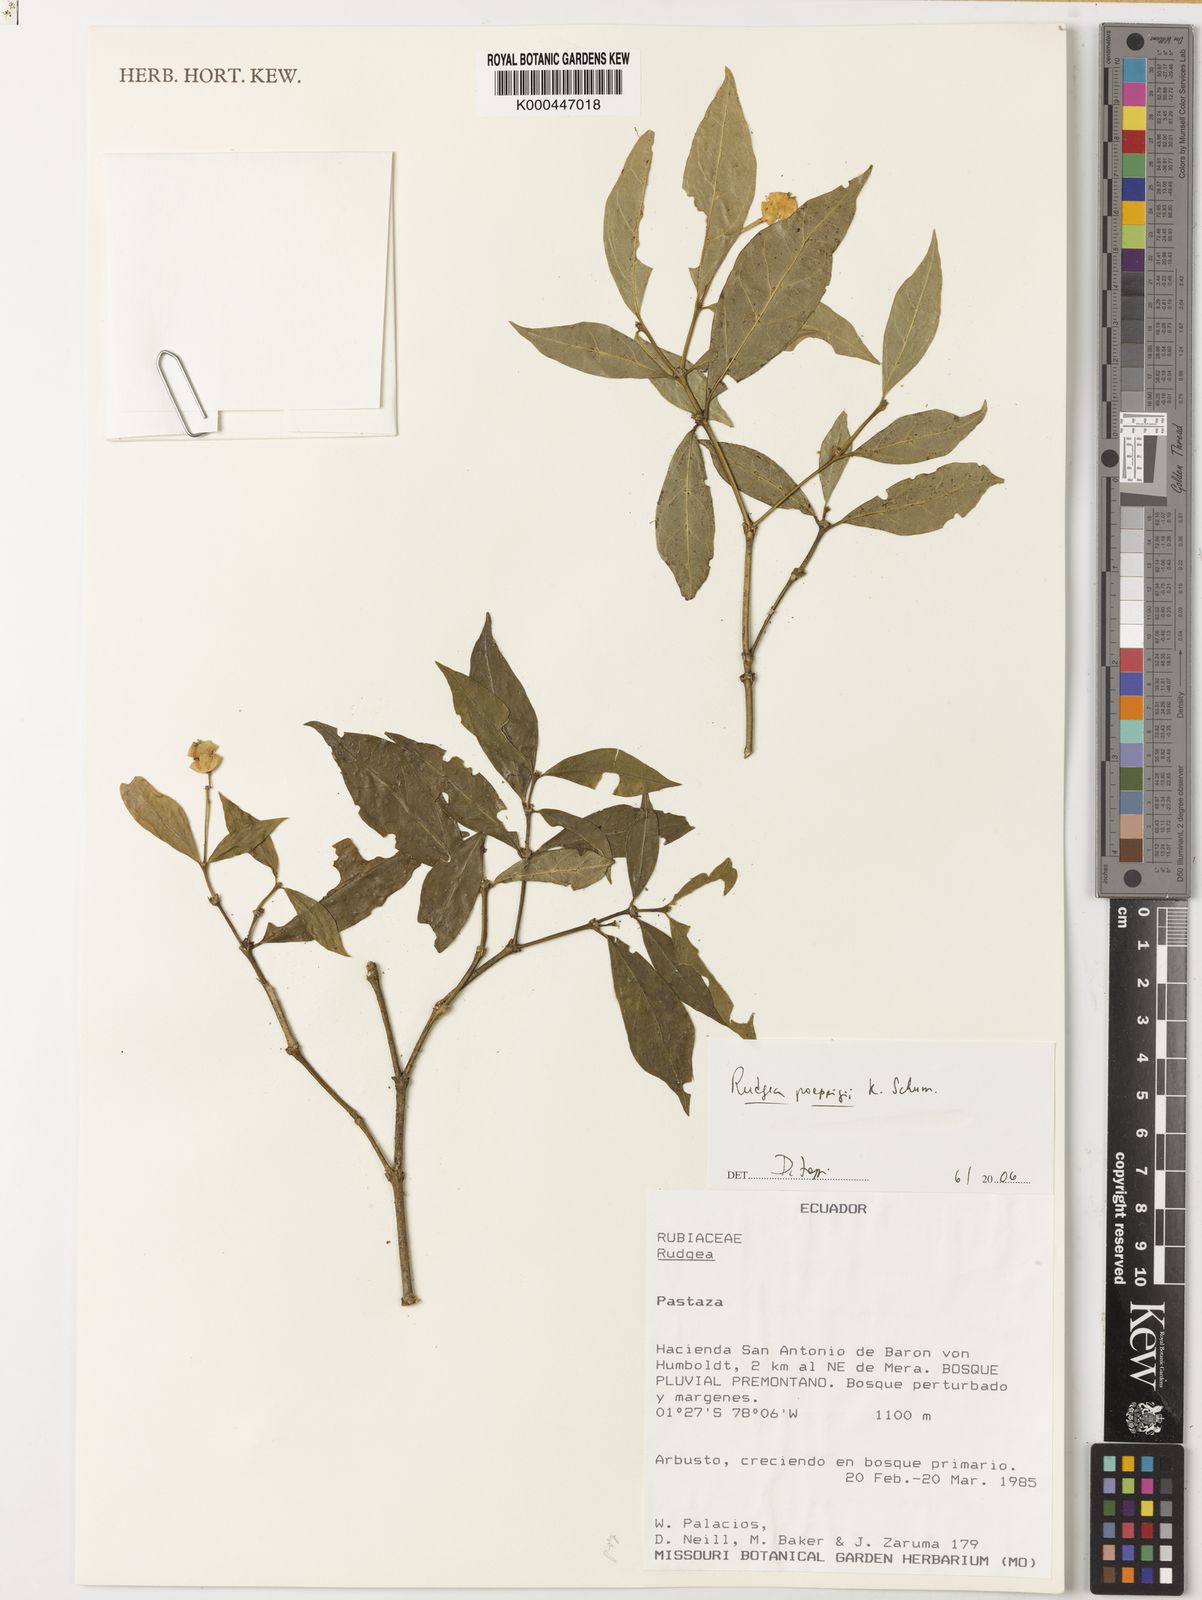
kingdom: Plantae
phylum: Tracheophyta
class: Magnoliopsida
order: Gentianales
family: Rubiaceae
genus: Rudgea
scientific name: Rudgea poeppigii
